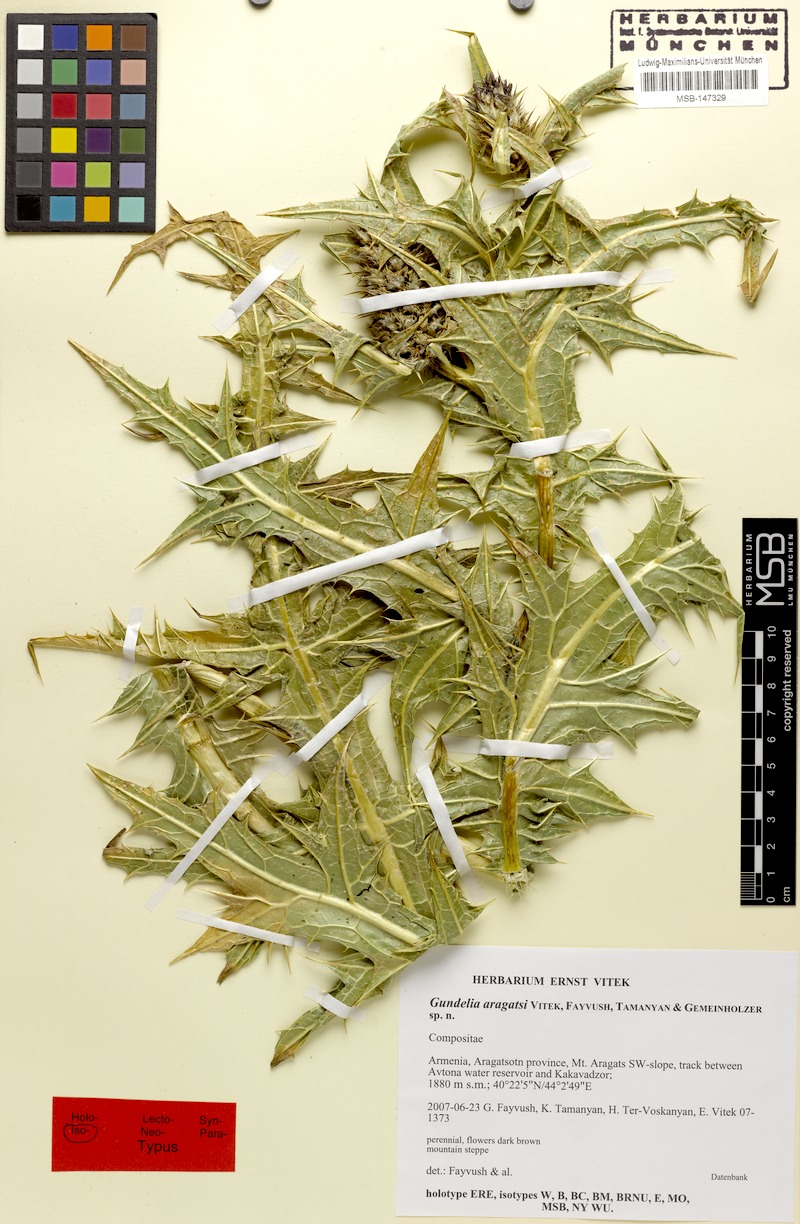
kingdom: Plantae
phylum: Tracheophyta
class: Magnoliopsida
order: Asterales
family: Asteraceae
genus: Gundelia
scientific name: Gundelia aragatsi
